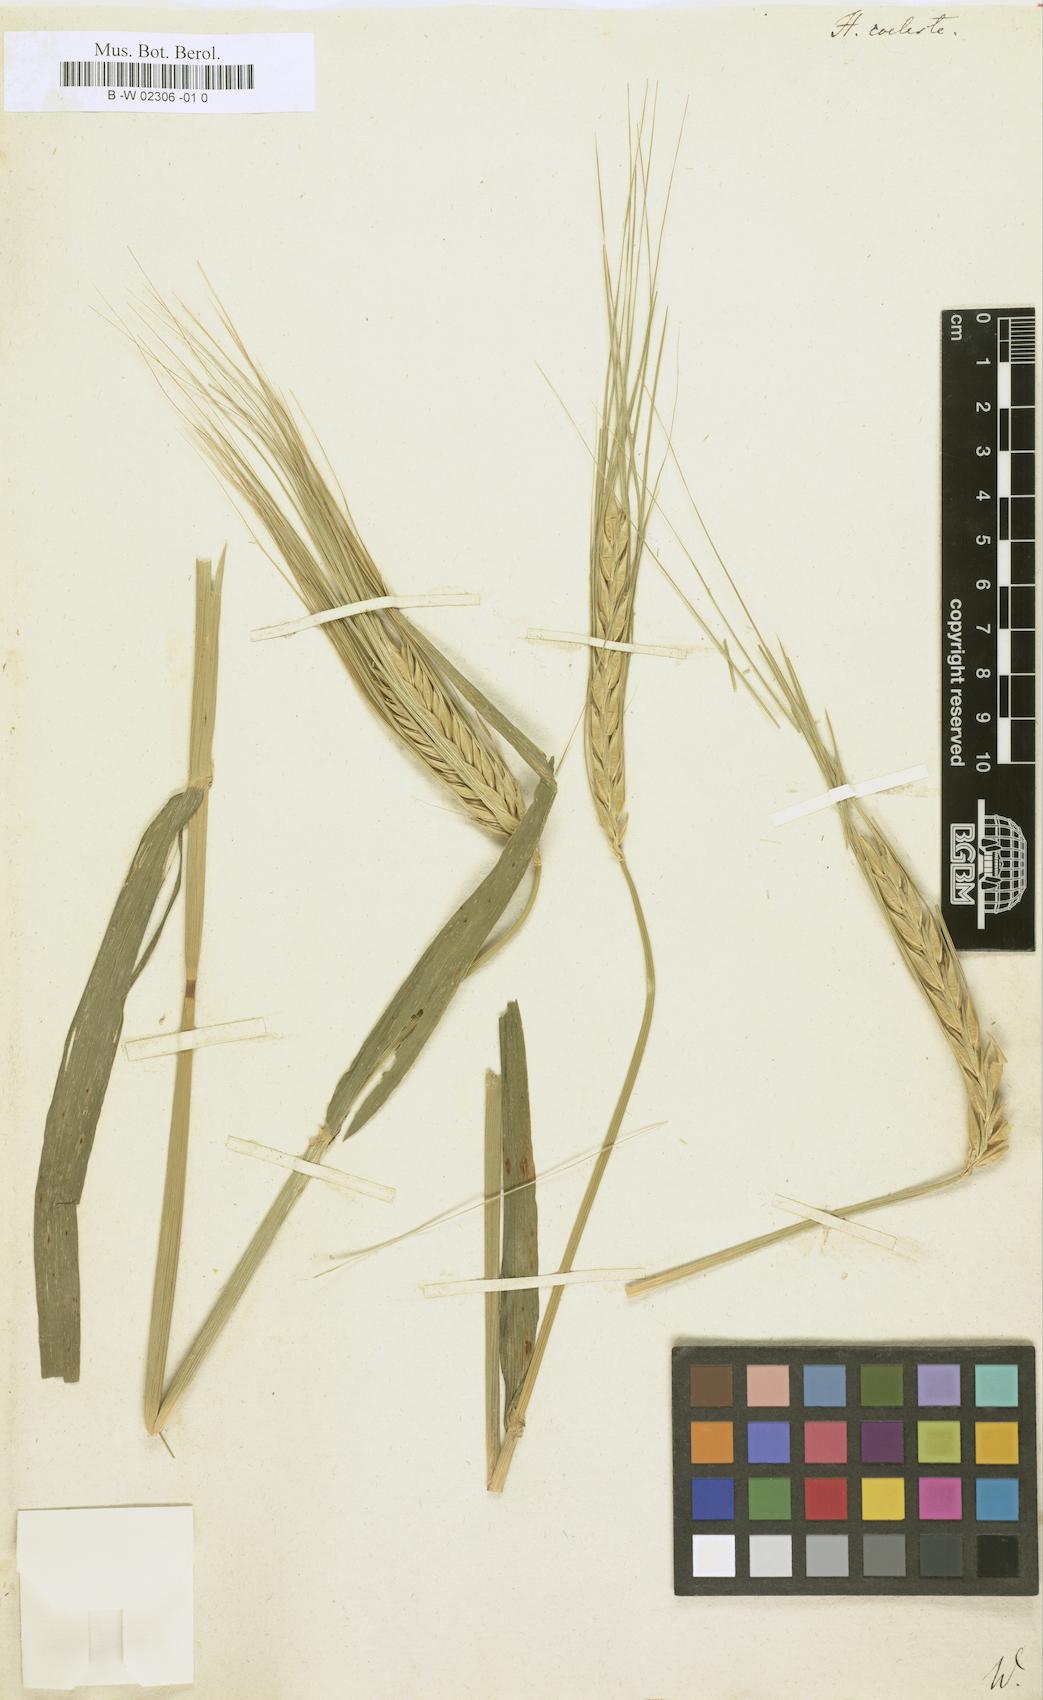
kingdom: Plantae
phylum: Tracheophyta
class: Liliopsida
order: Poales
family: Poaceae
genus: Hordeum
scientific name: Hordeum coeleste
